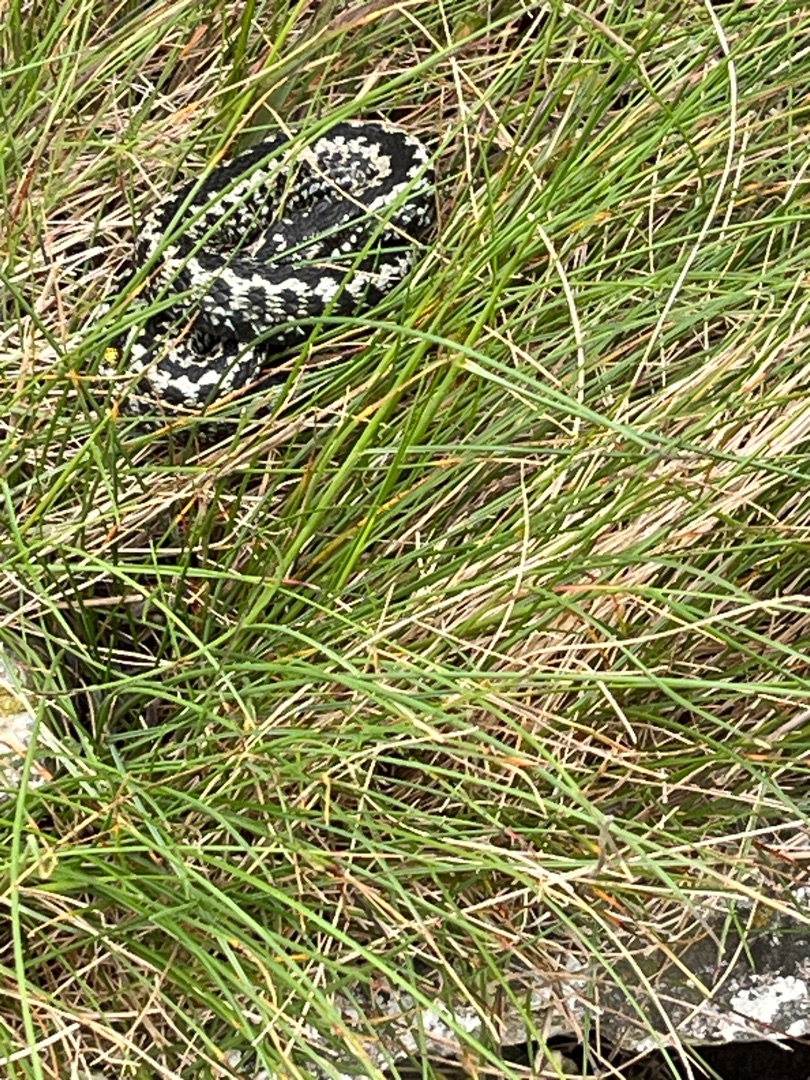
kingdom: Animalia
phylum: Chordata
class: Squamata
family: Viperidae
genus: Vipera
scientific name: Vipera berus
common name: Hugorm
